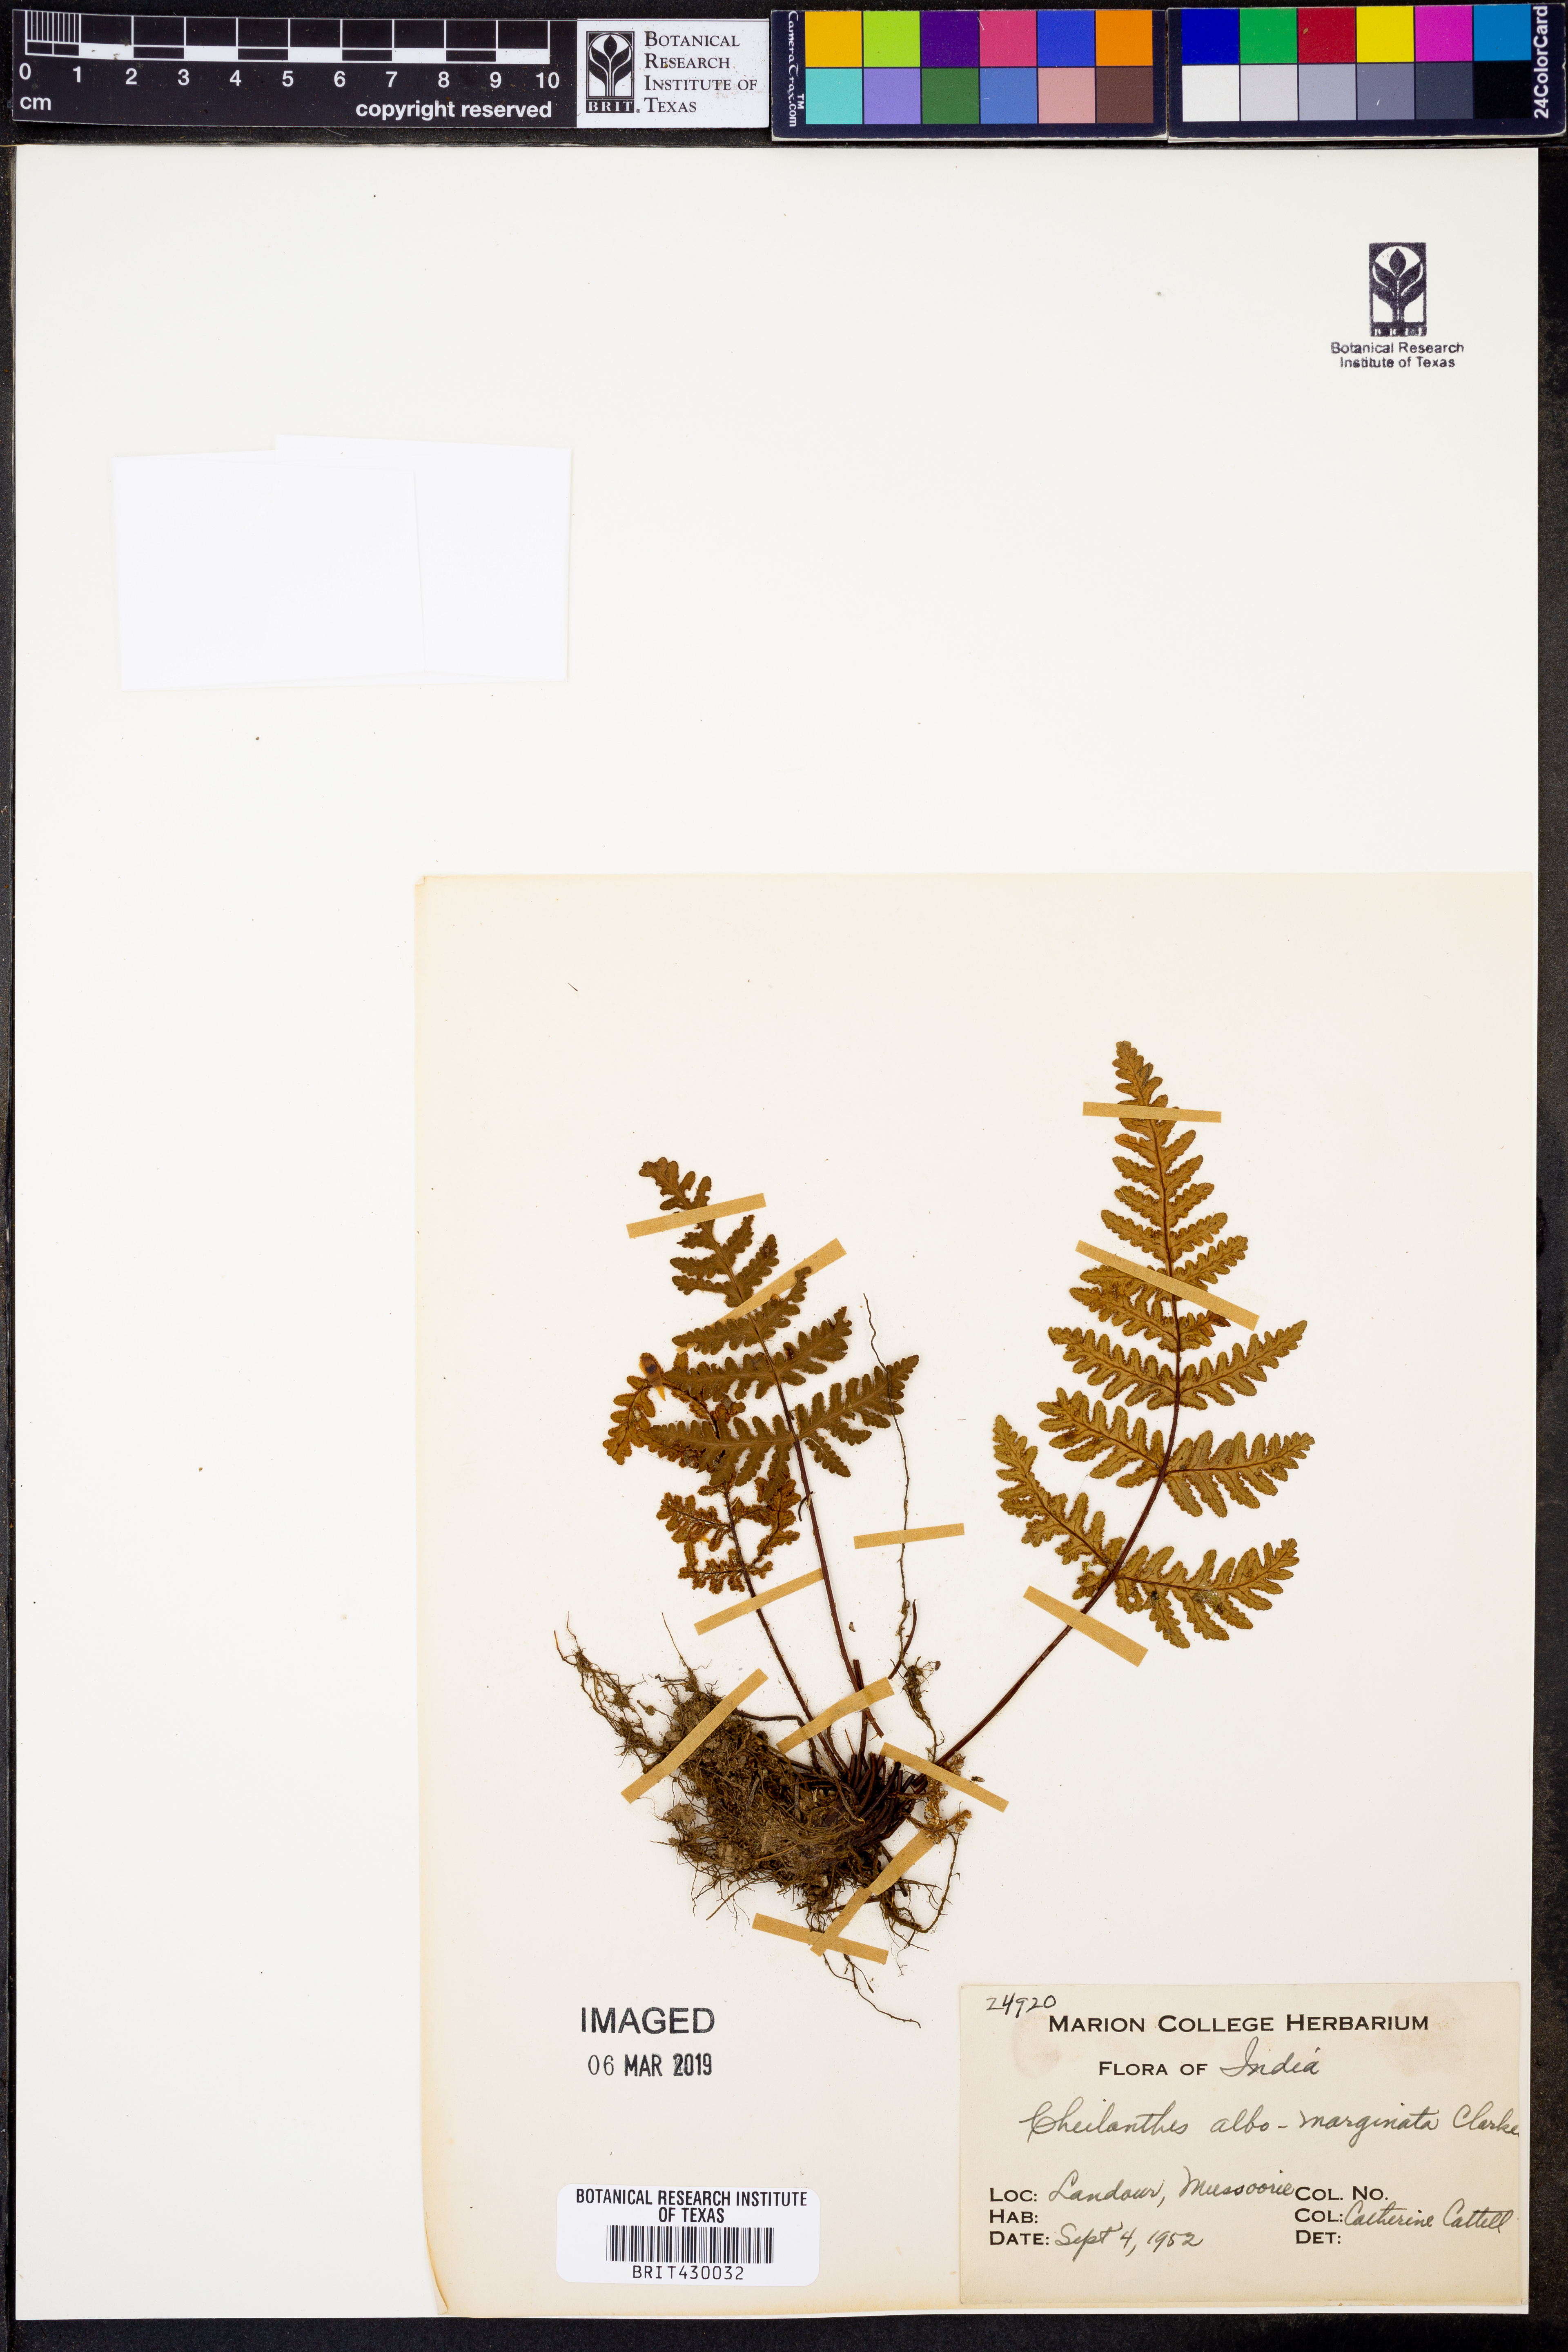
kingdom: Plantae
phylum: Tracheophyta
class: Polypodiopsida
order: Polypodiales
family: Pteridaceae
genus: Aleuritopteris
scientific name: Aleuritopteris albomarginata
